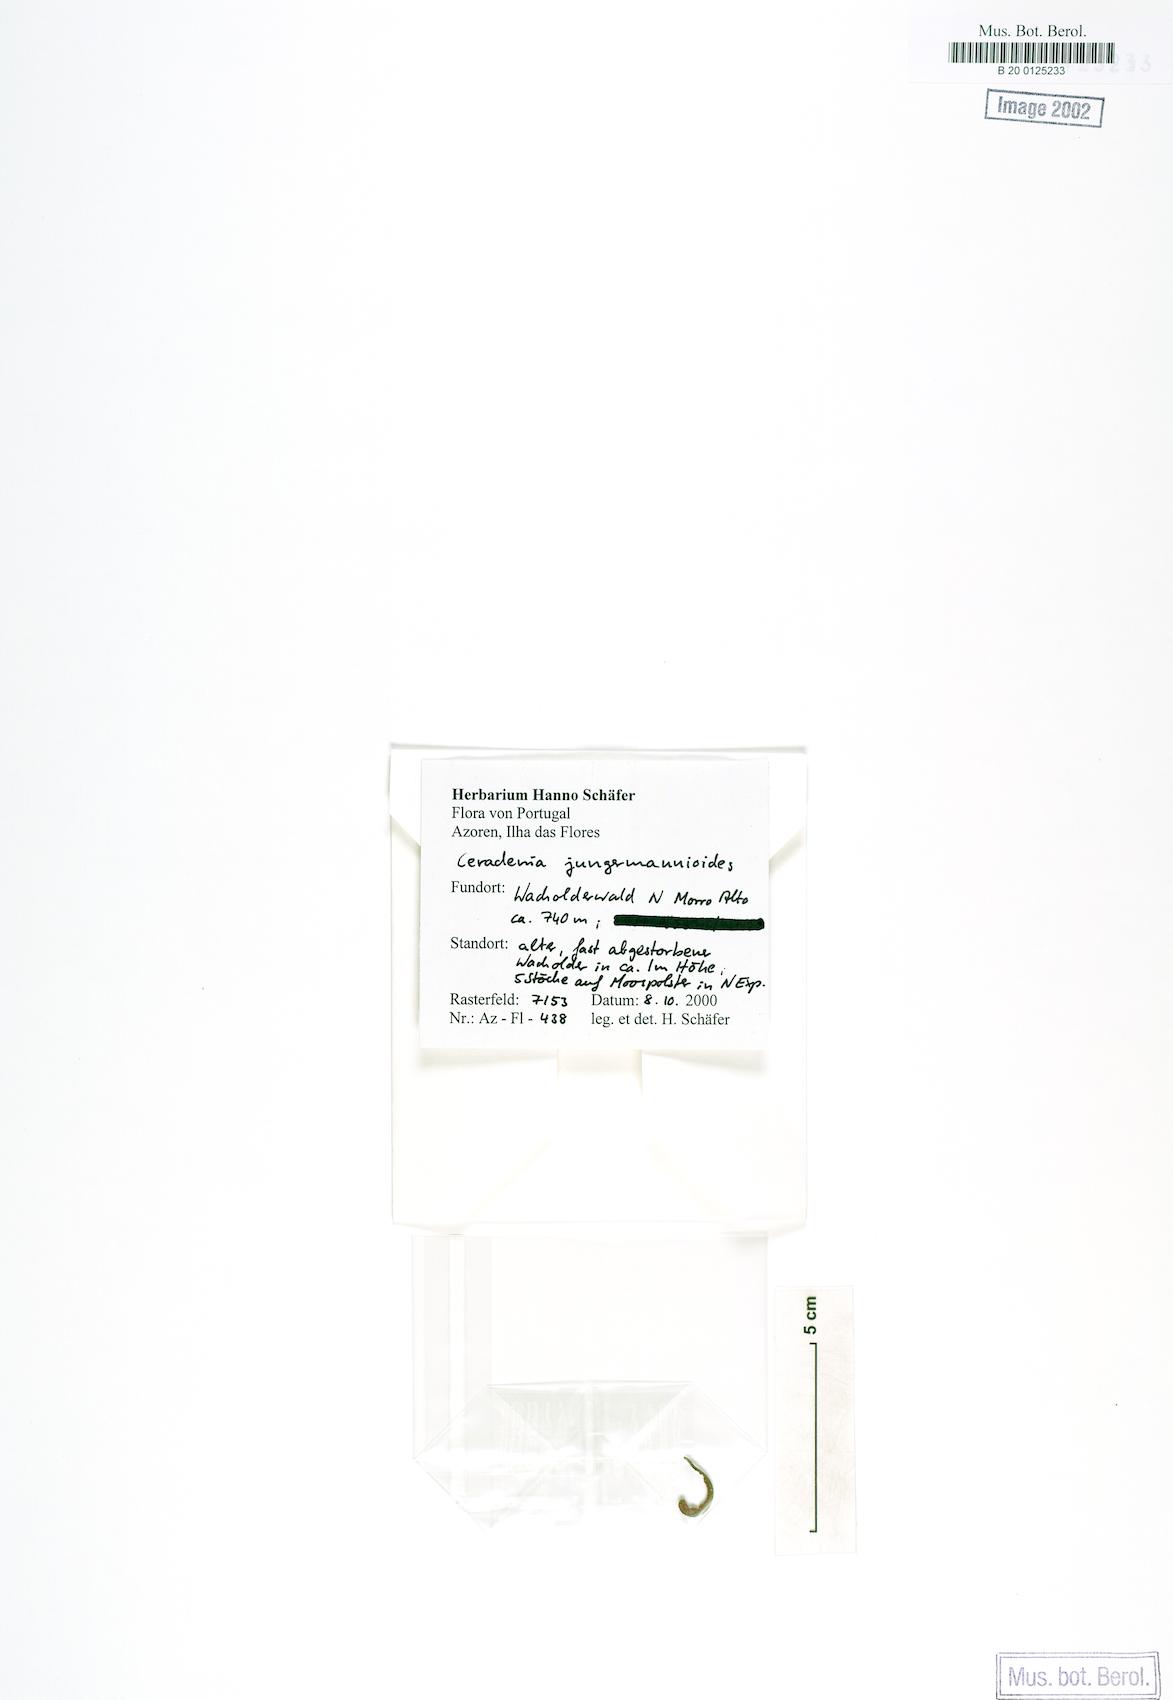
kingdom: Plantae
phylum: Tracheophyta
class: Polypodiopsida
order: Polypodiales
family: Polypodiaceae
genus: Ceradenia
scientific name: Ceradenia jungermannioides
